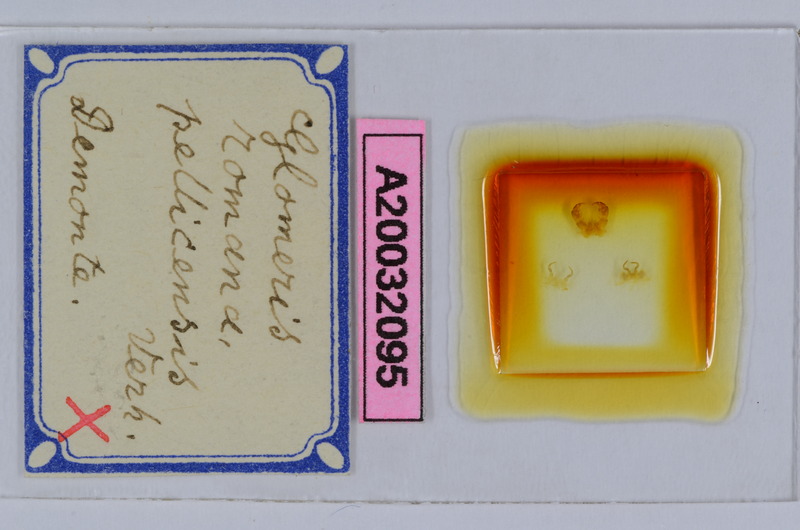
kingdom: Animalia
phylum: Arthropoda
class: Diplopoda
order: Glomerida
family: Glomeridae
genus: Glomeris
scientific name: Glomeris romana
